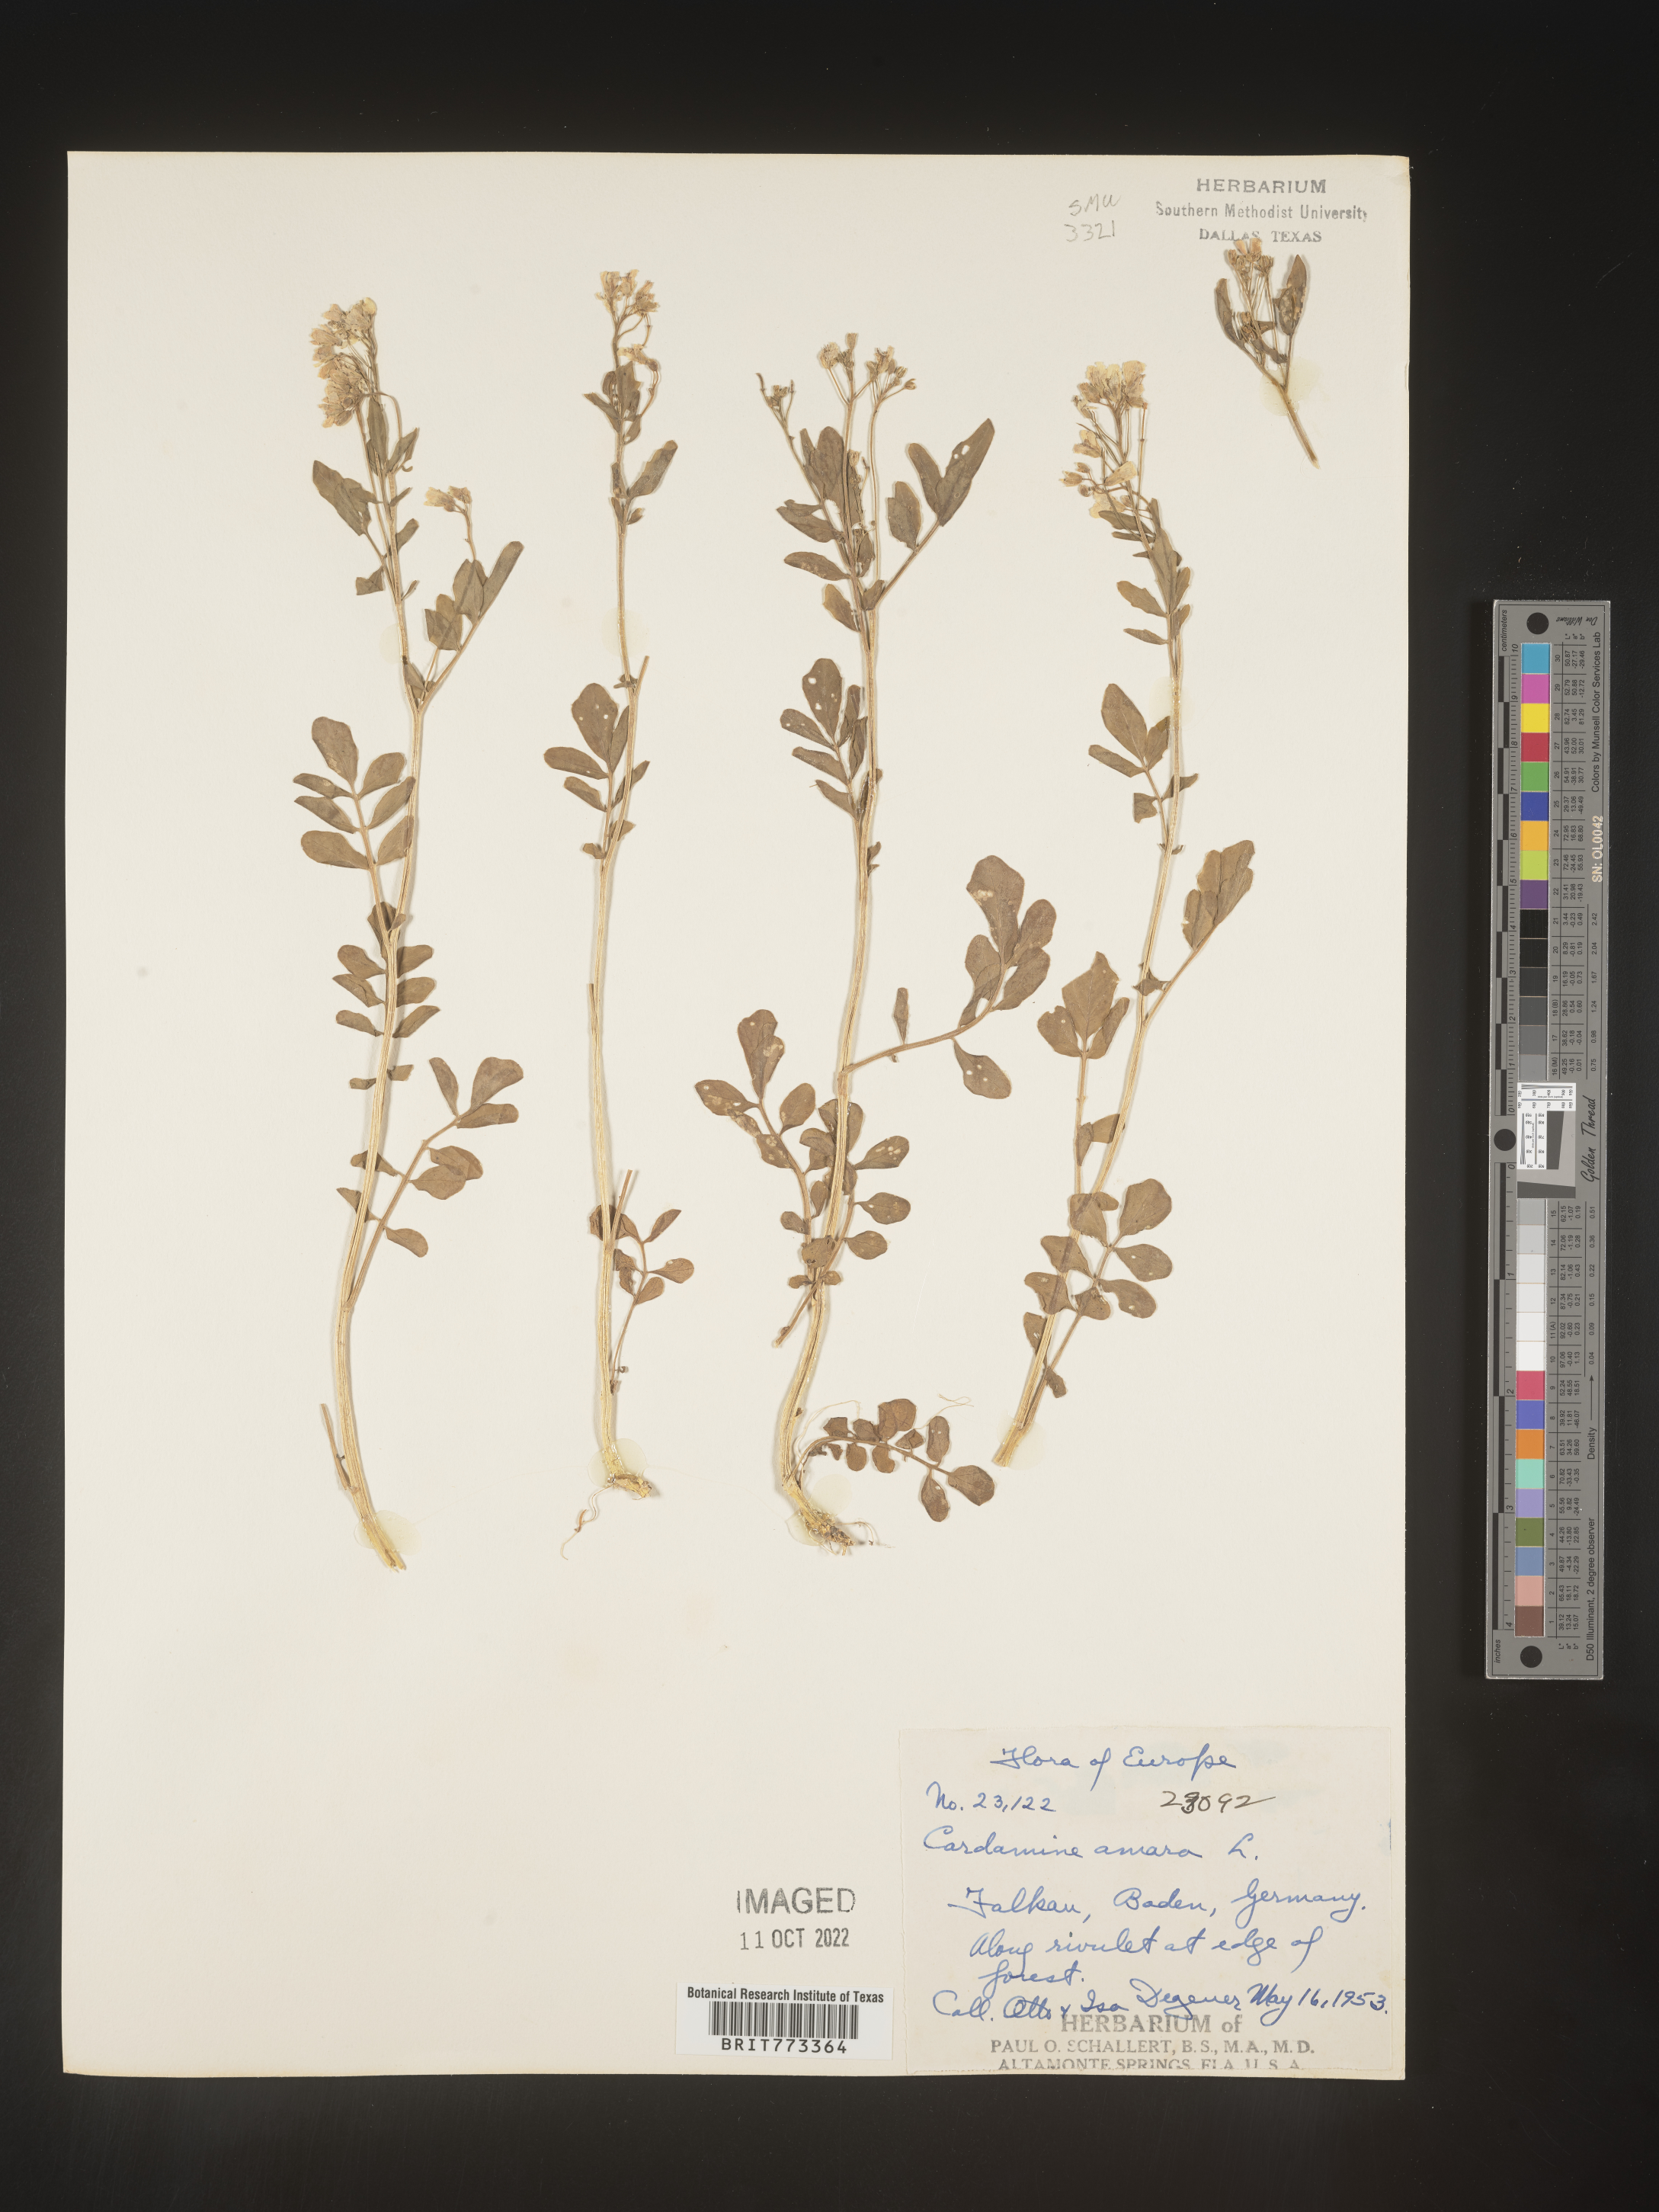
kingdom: Plantae
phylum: Tracheophyta
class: Magnoliopsida
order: Brassicales
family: Brassicaceae
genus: Cardamine
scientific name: Cardamine
